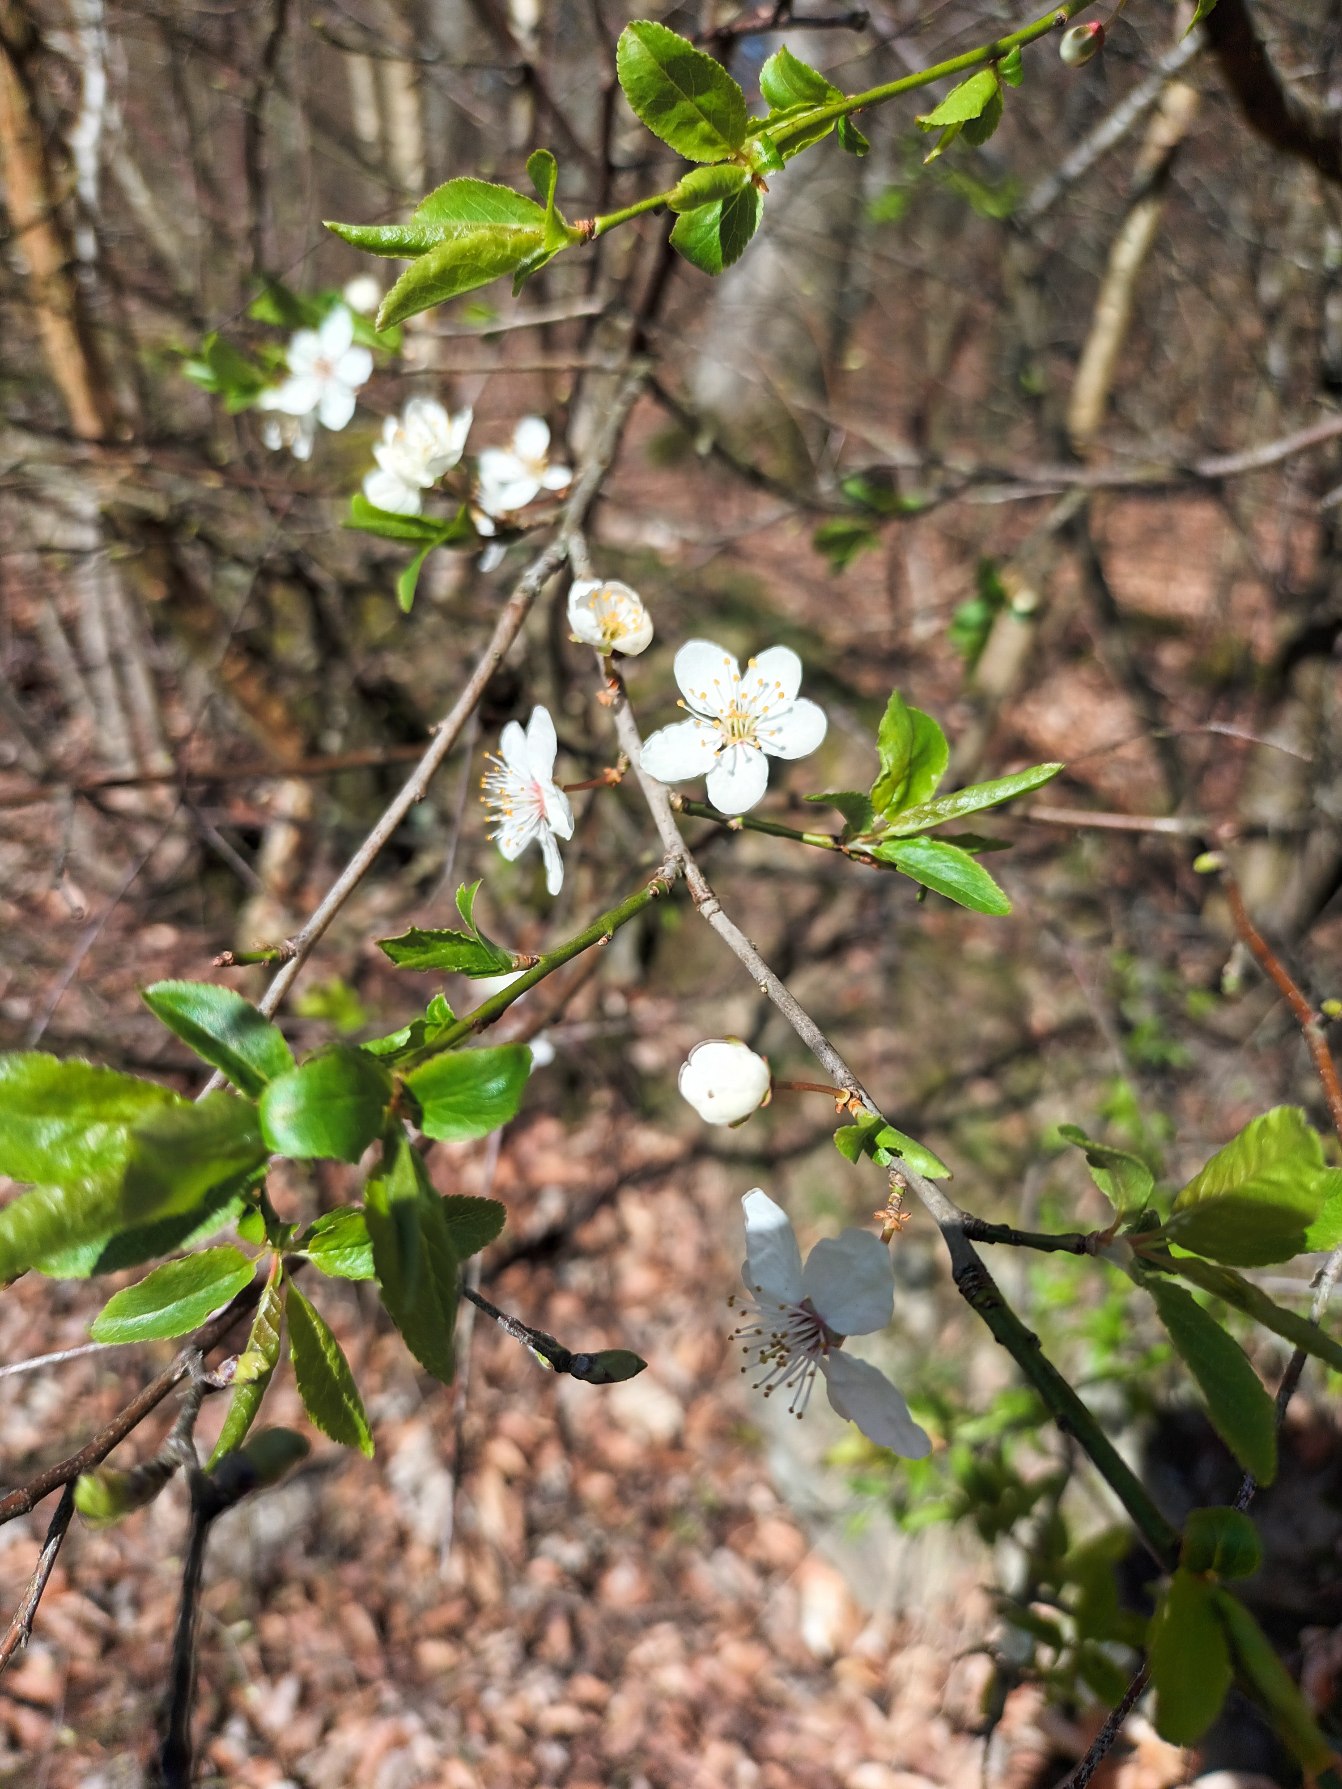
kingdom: Plantae
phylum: Tracheophyta
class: Magnoliopsida
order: Rosales
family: Rosaceae
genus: Prunus
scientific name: Prunus cerasifera
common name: Mirabel
